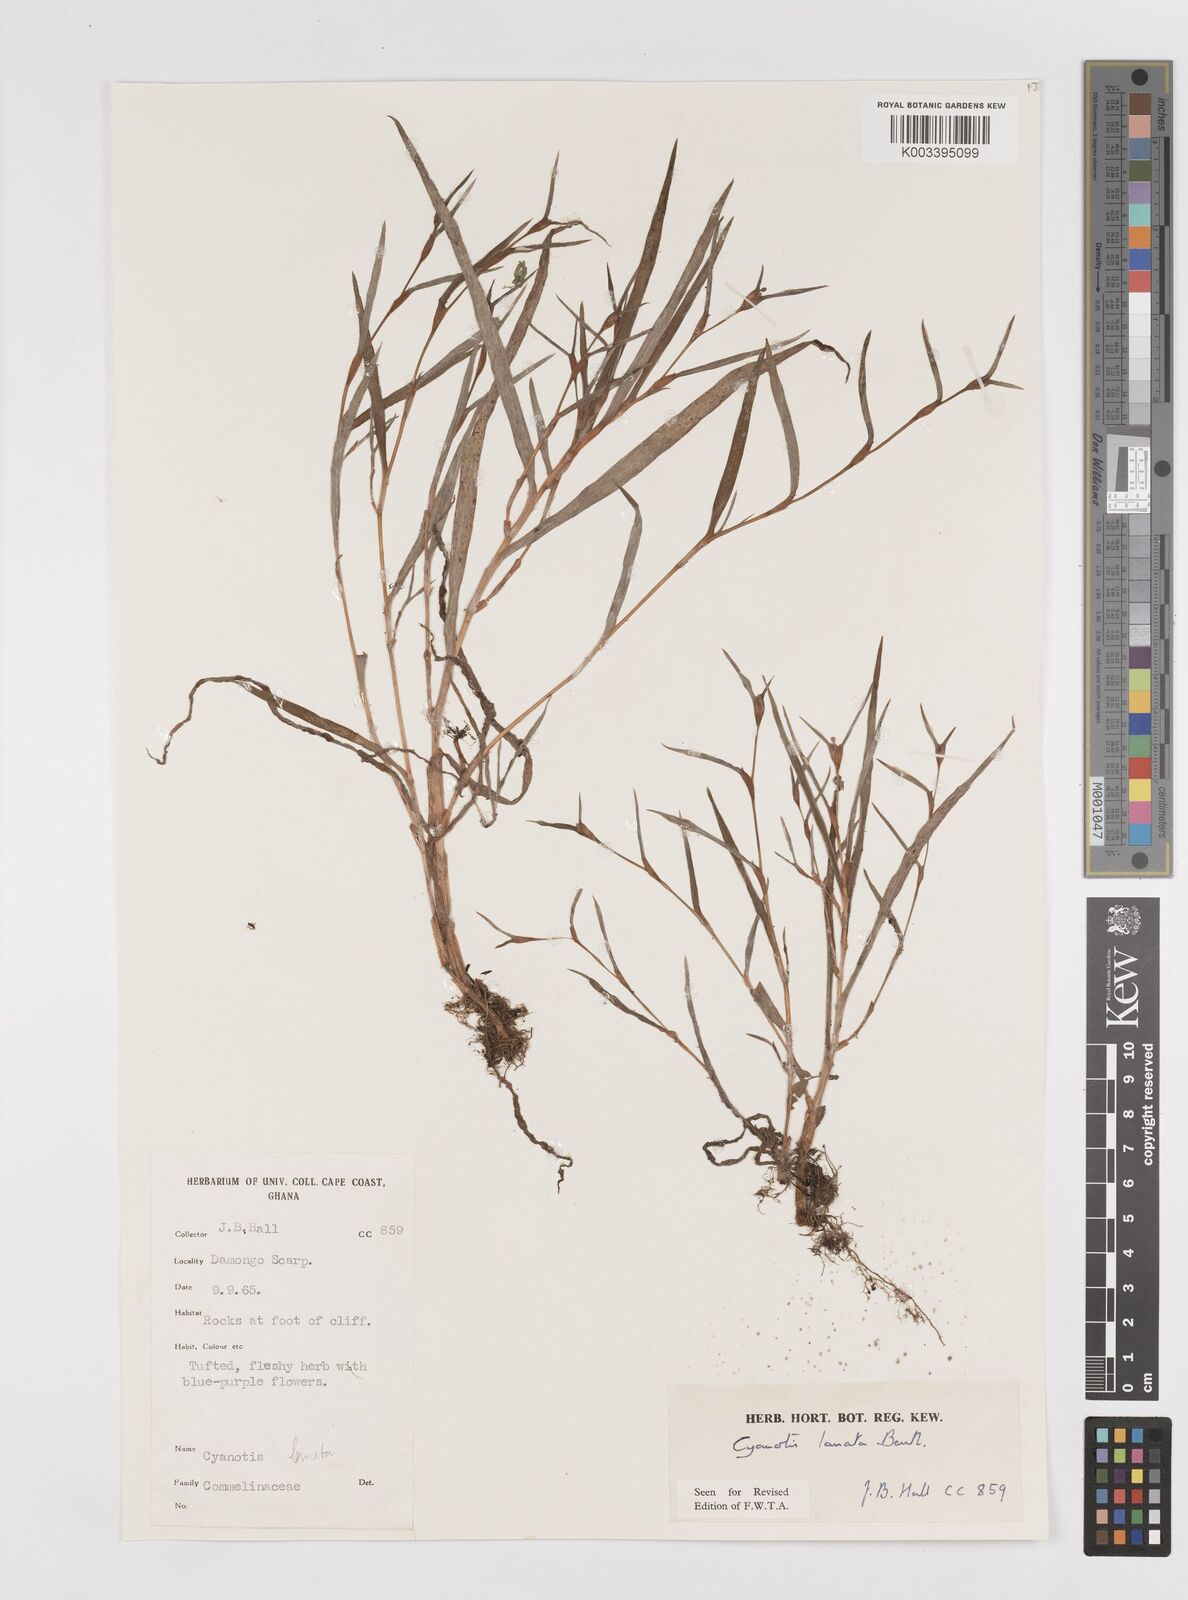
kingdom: Plantae
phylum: Tracheophyta
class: Liliopsida
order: Commelinales
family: Commelinaceae
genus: Cyanotis
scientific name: Cyanotis lanata
